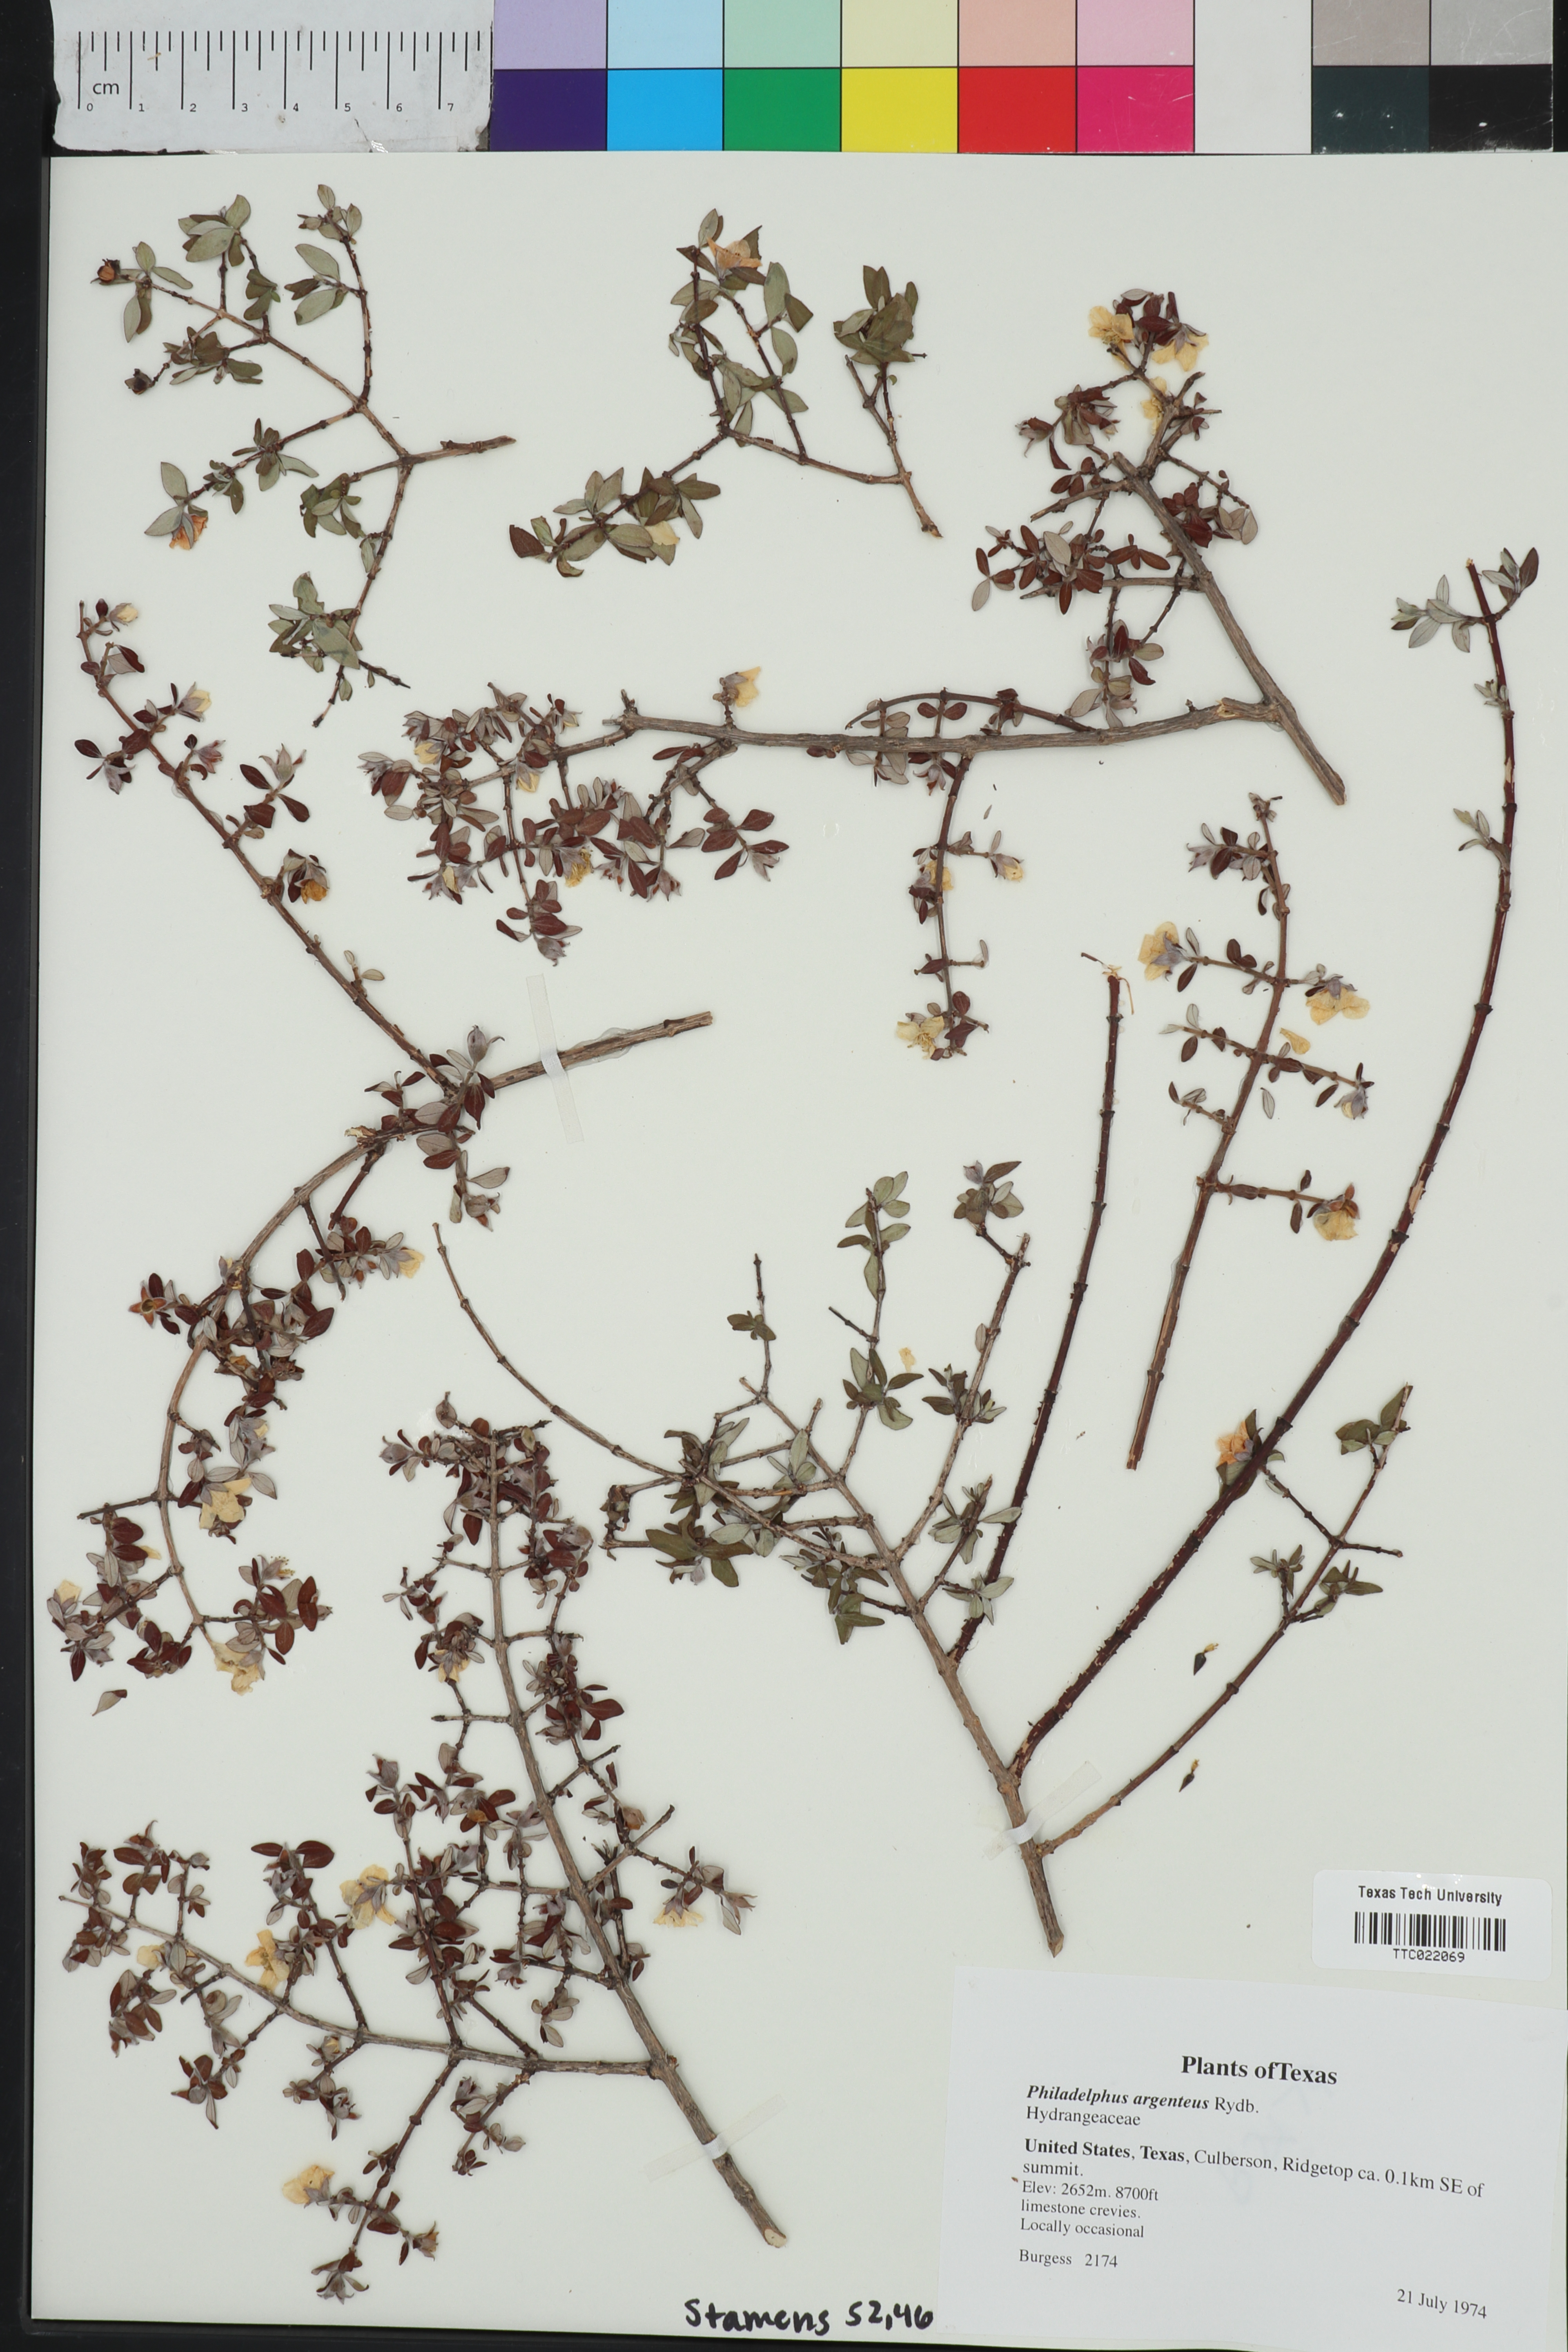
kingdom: Plantae
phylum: Tracheophyta
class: Magnoliopsida
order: Cornales
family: Hydrangeaceae
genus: Philadelphus
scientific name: Philadelphus microphyllus
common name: Desert mock orange
